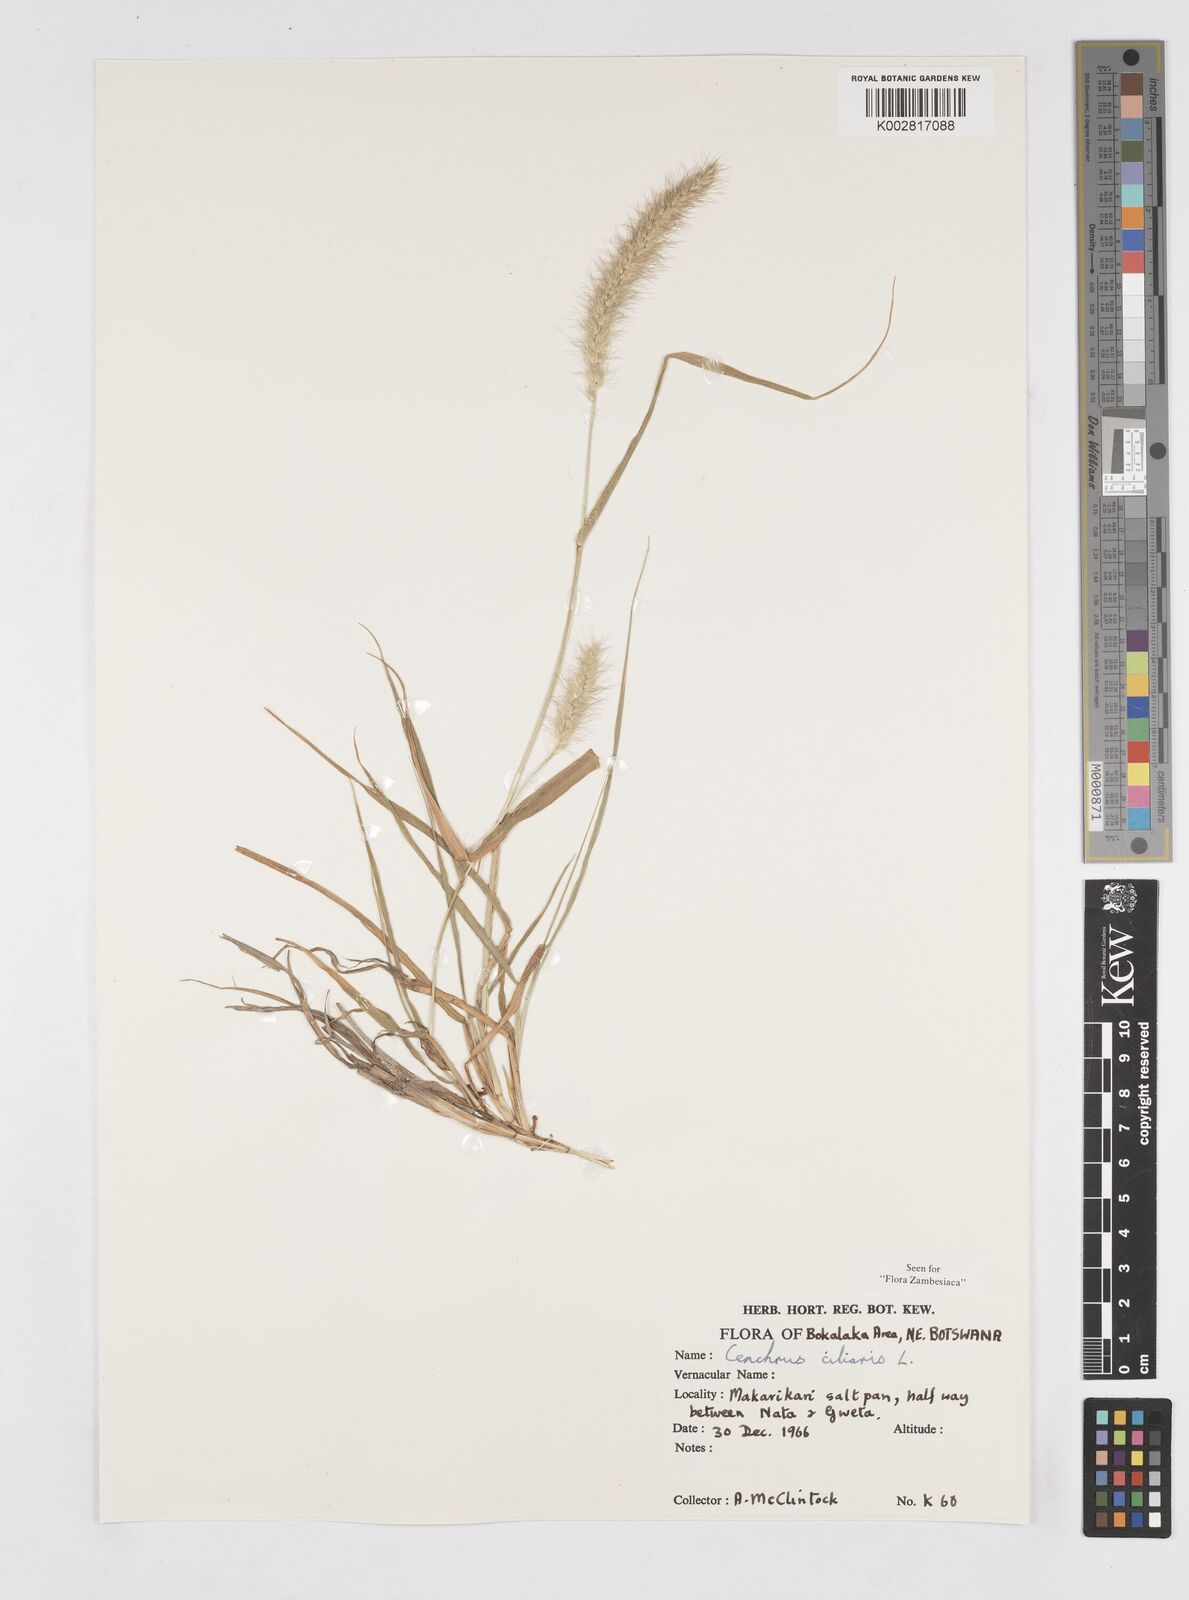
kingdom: Plantae
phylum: Tracheophyta
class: Liliopsida
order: Poales
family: Poaceae
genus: Cenchrus
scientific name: Cenchrus ciliaris
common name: Buffelgrass
